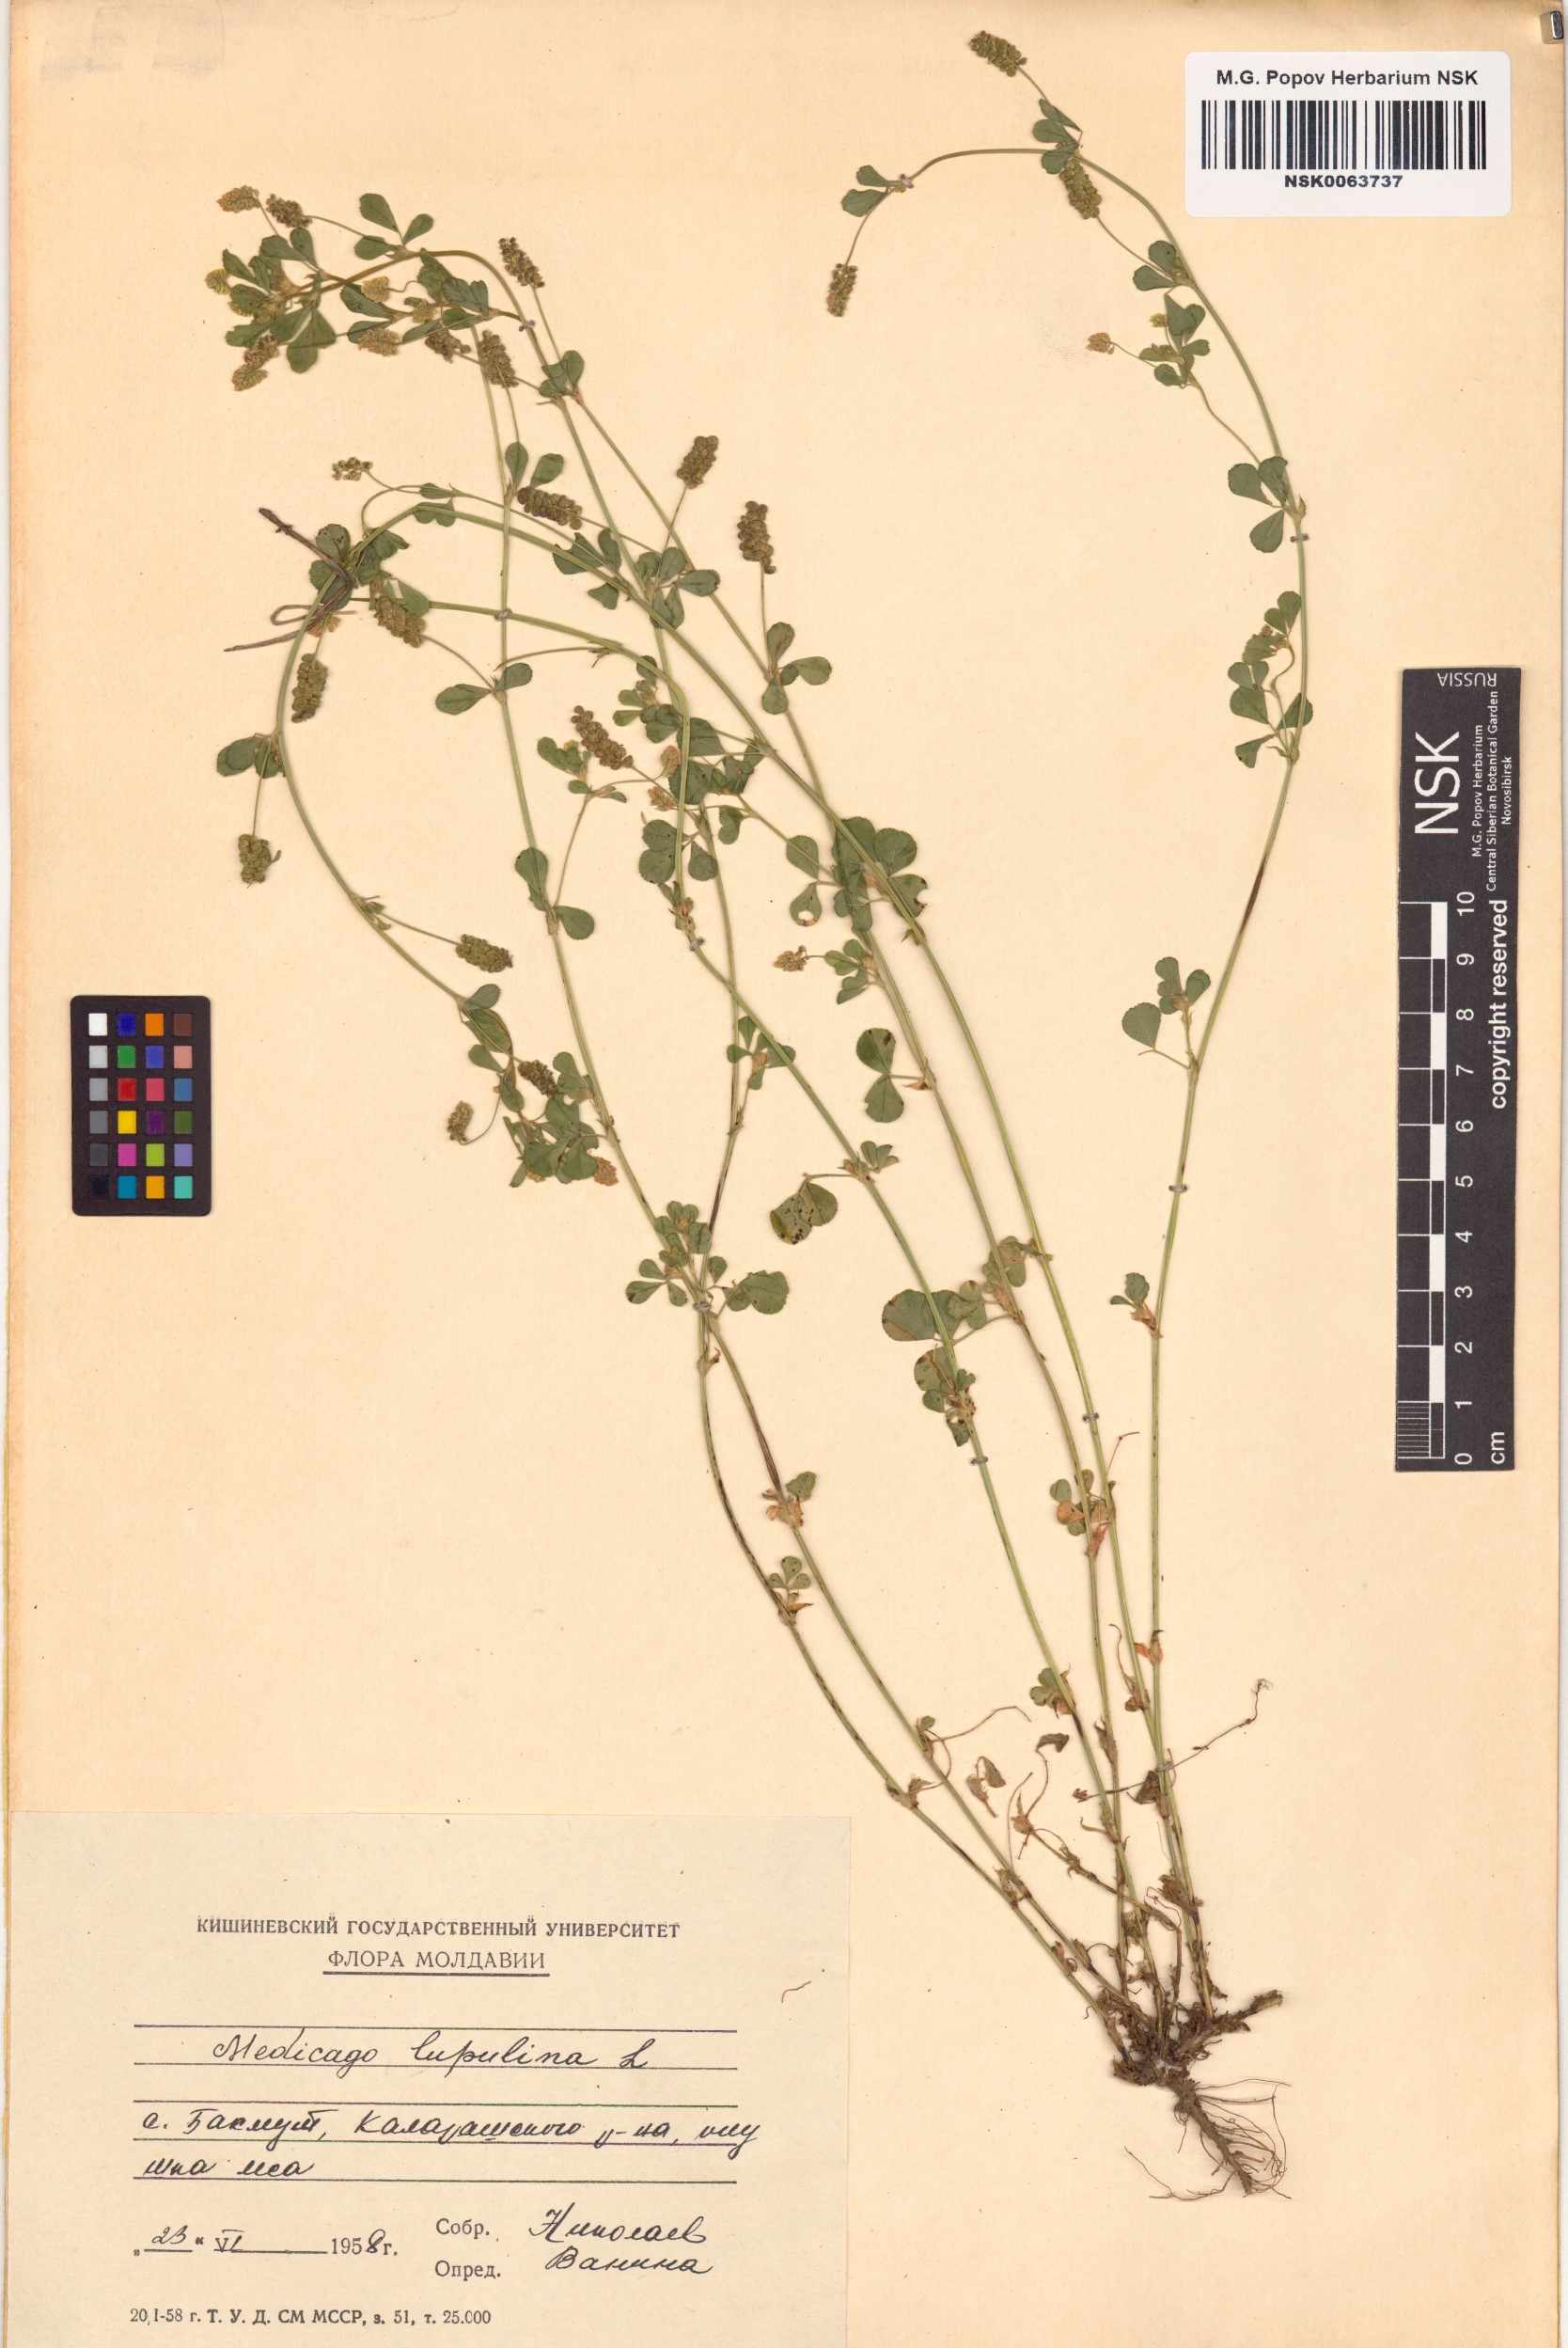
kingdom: Plantae
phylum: Tracheophyta
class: Magnoliopsida
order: Fabales
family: Fabaceae
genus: Medicago
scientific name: Medicago lupulina
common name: Black medick
